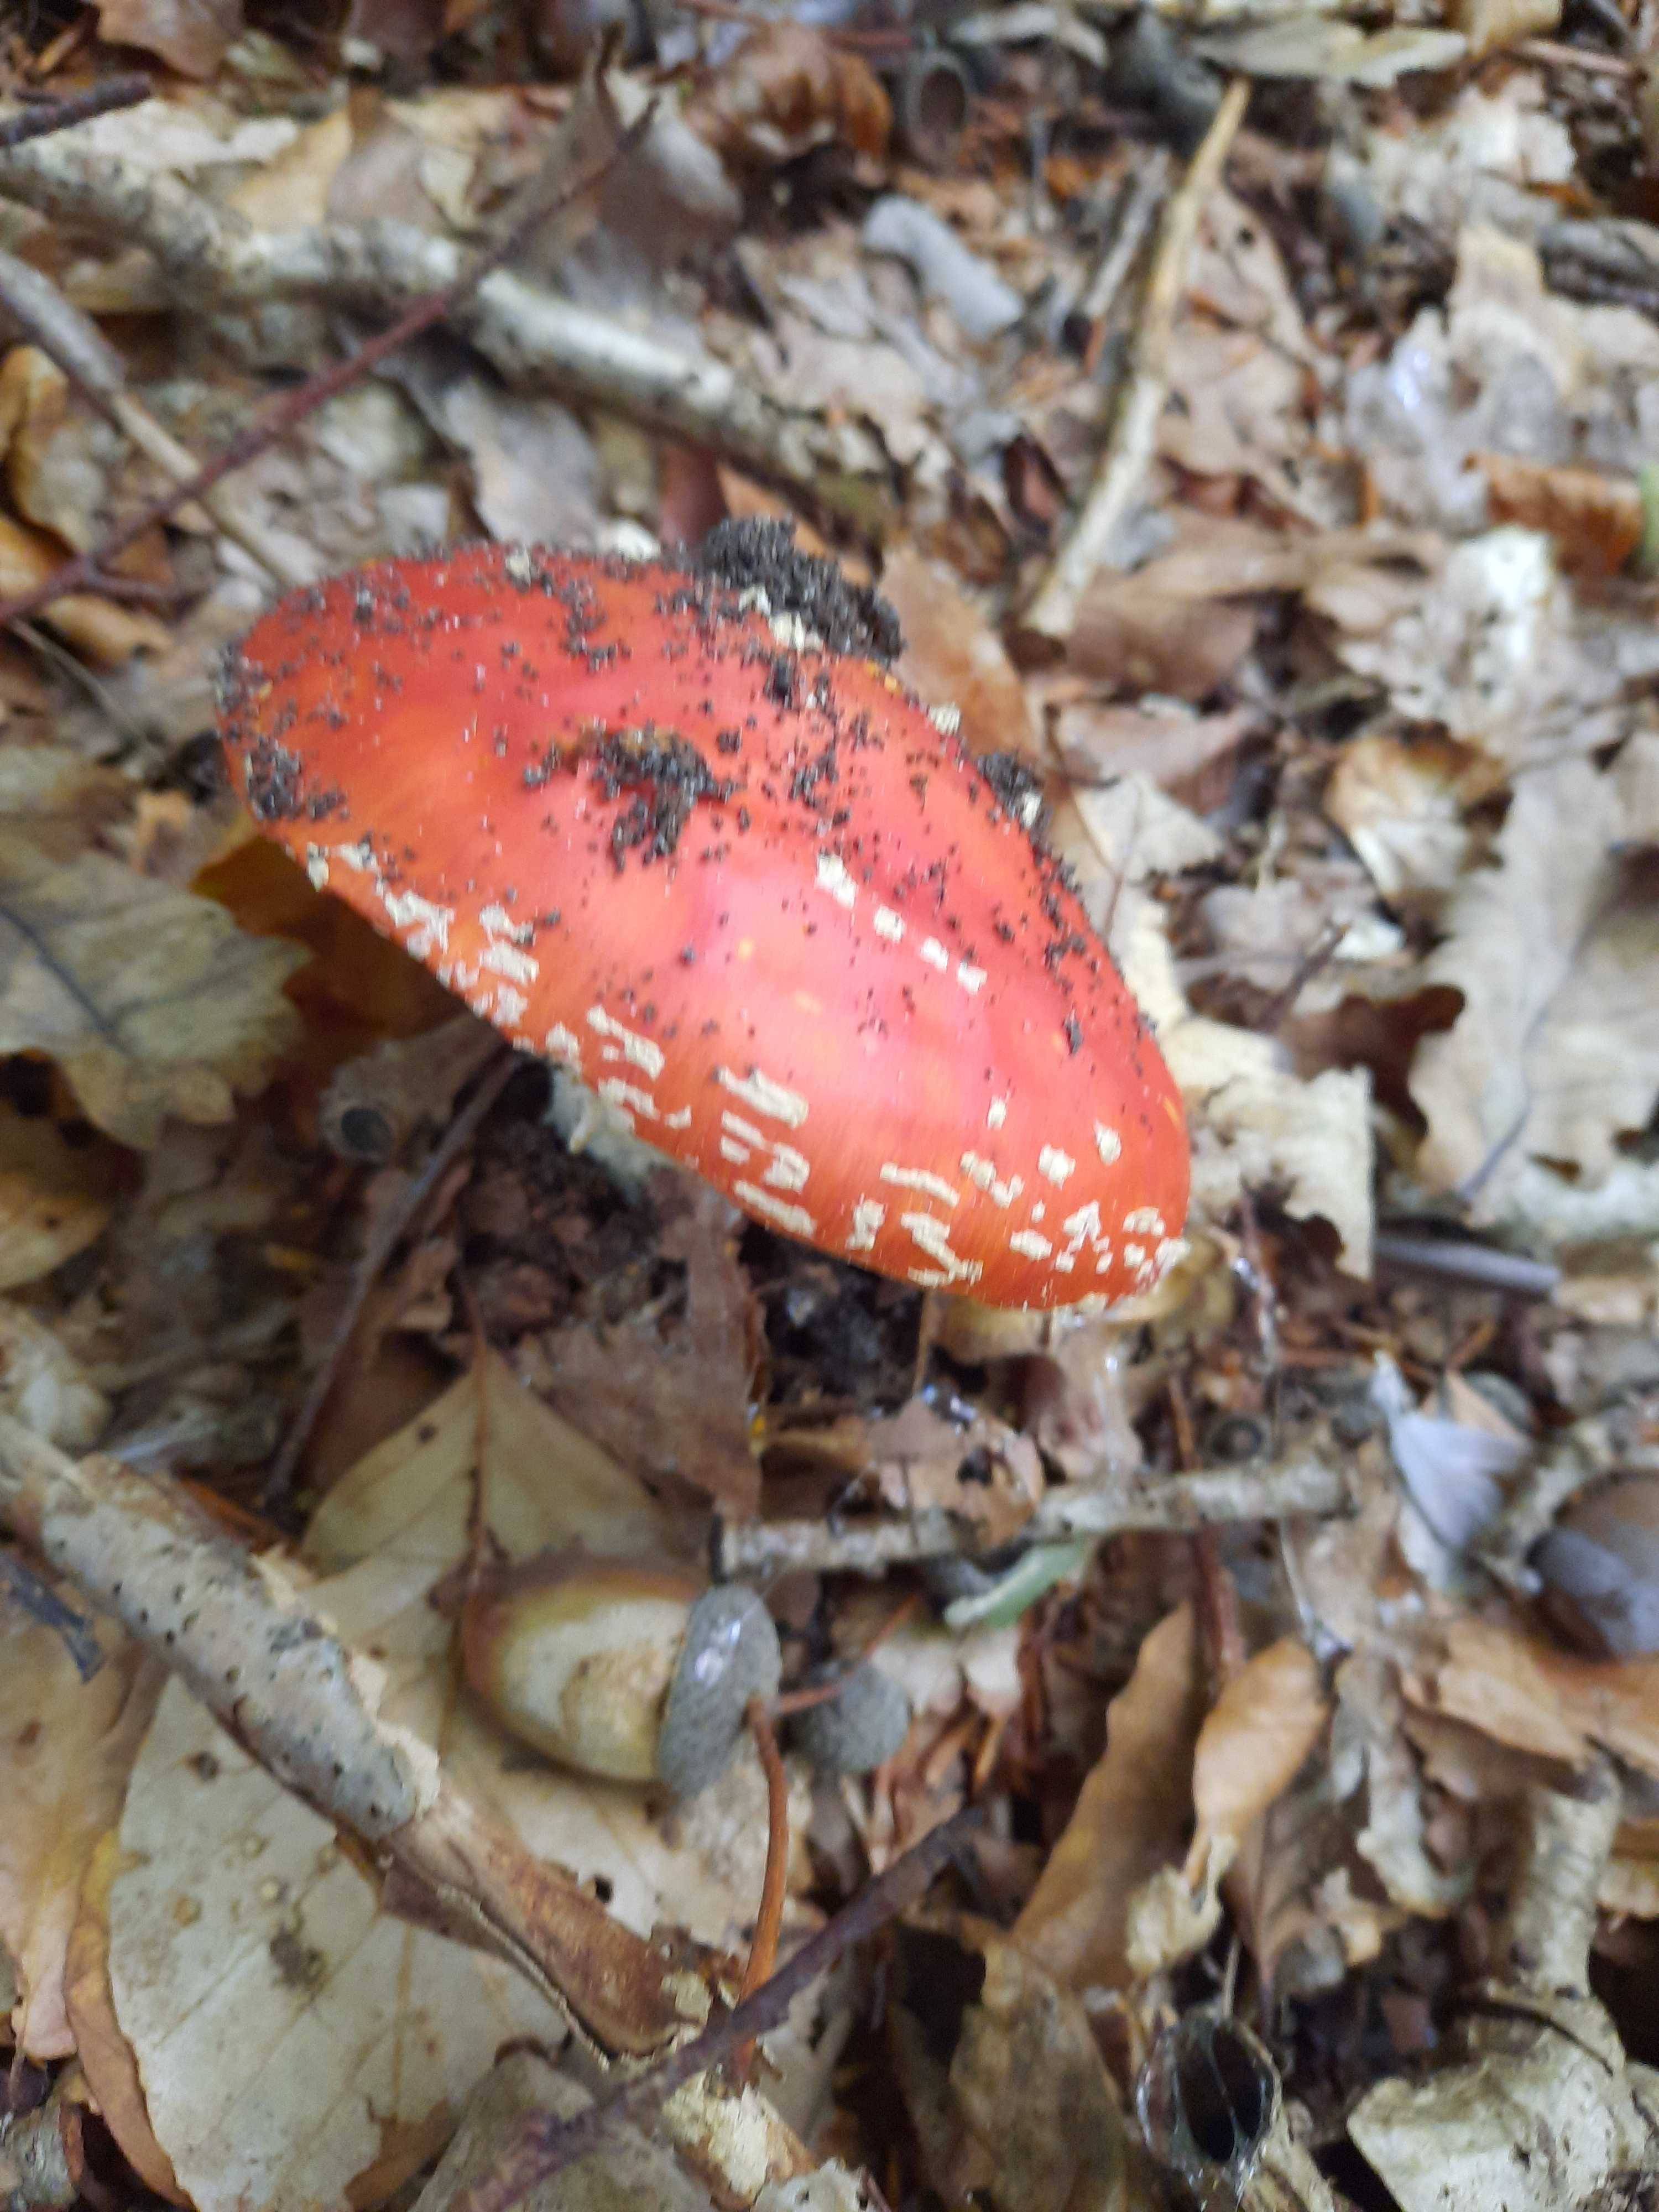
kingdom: Fungi
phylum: Basidiomycota
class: Agaricomycetes
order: Agaricales
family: Amanitaceae
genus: Amanita
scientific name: Amanita muscaria
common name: rød fluesvamp
